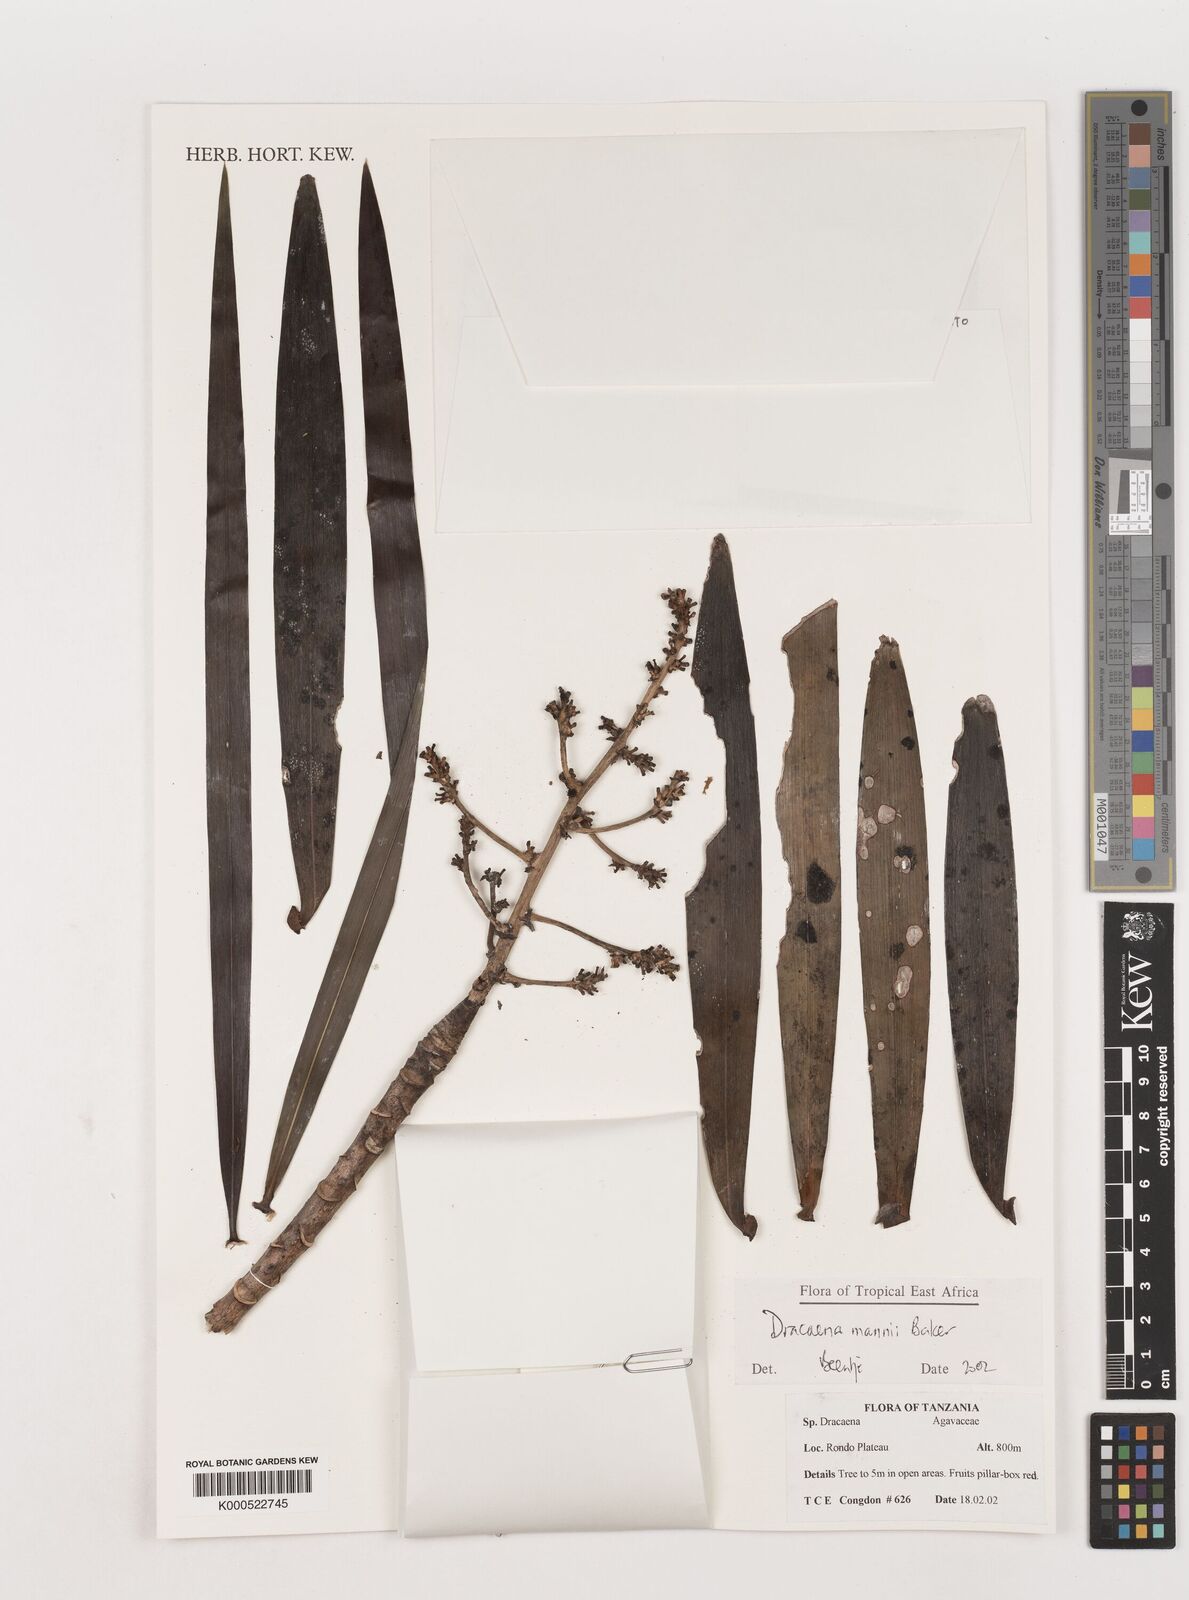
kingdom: Plantae
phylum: Tracheophyta
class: Liliopsida
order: Asparagales
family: Asparagaceae
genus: Dracaena
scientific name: Dracaena mannii
